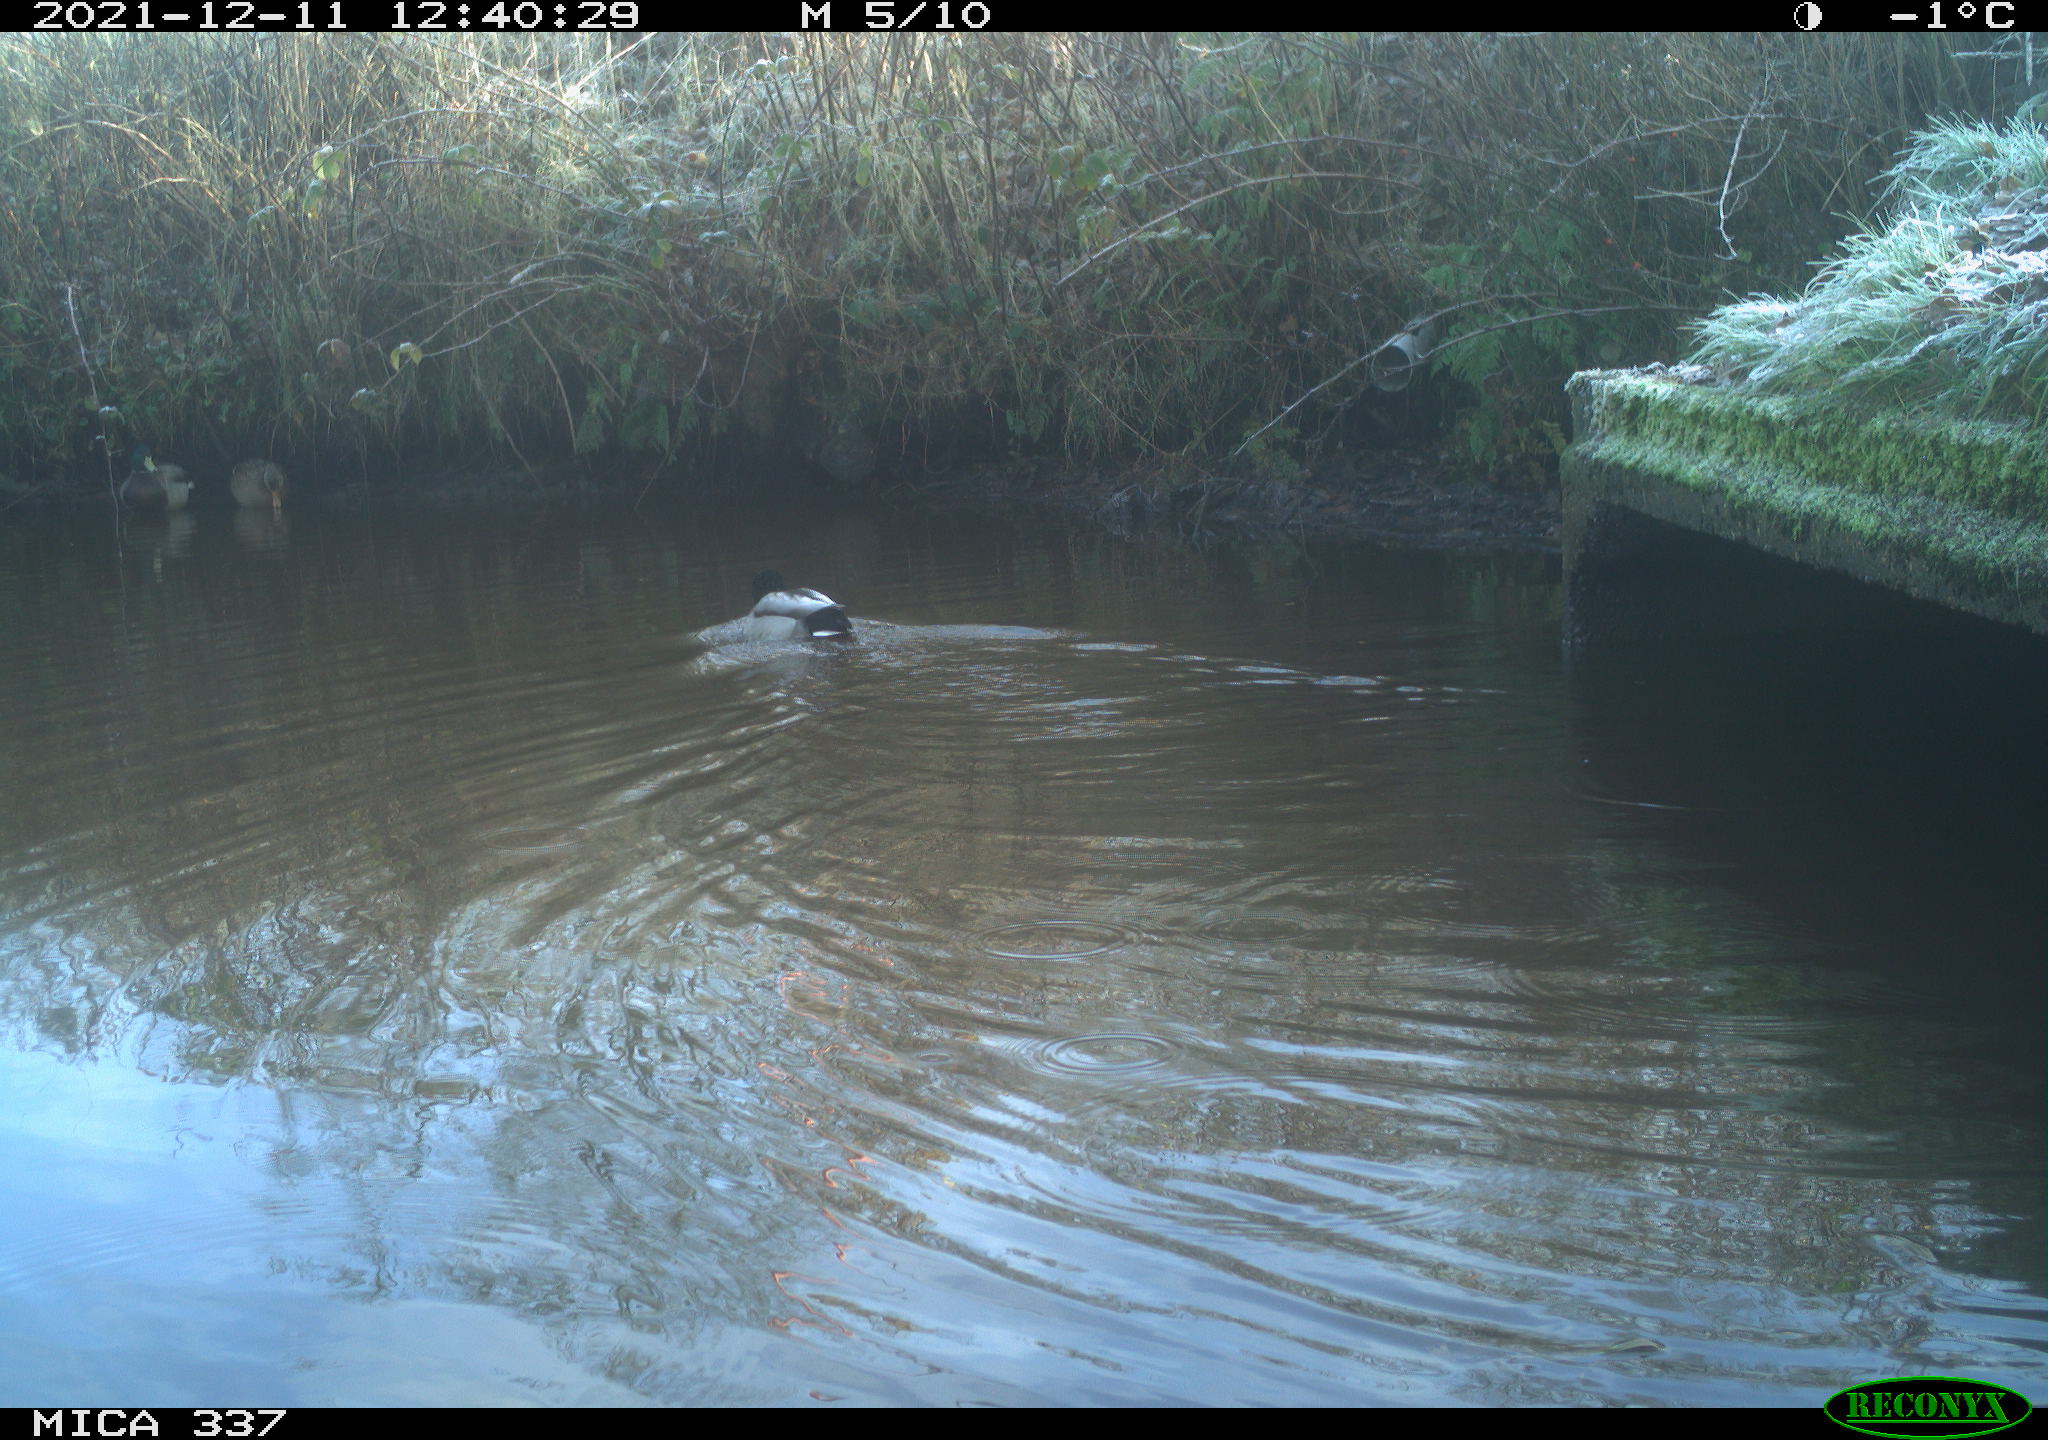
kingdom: Animalia
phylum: Chordata
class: Aves
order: Anseriformes
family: Anatidae
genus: Anas
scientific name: Anas platyrhynchos
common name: Mallard
